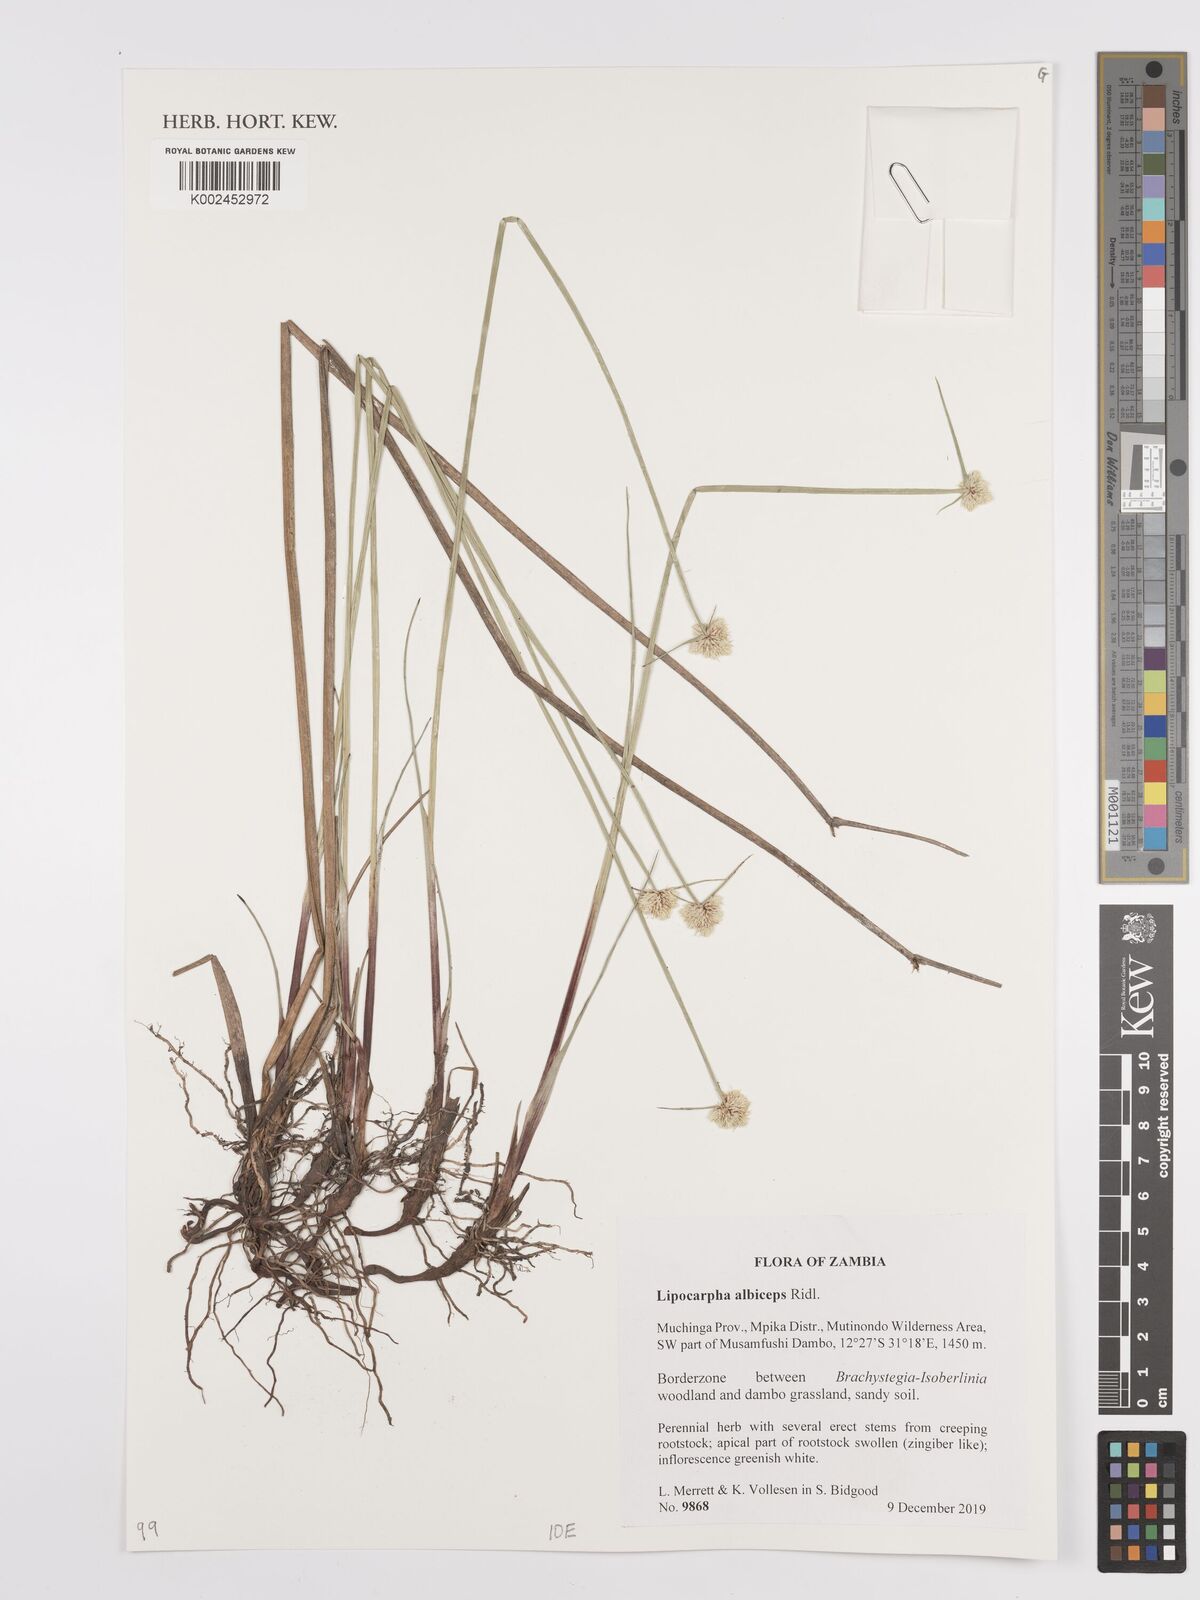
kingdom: Plantae
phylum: Tracheophyta
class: Liliopsida
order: Poales
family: Cyperaceae
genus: Cyperus
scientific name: Cyperus albiceps
